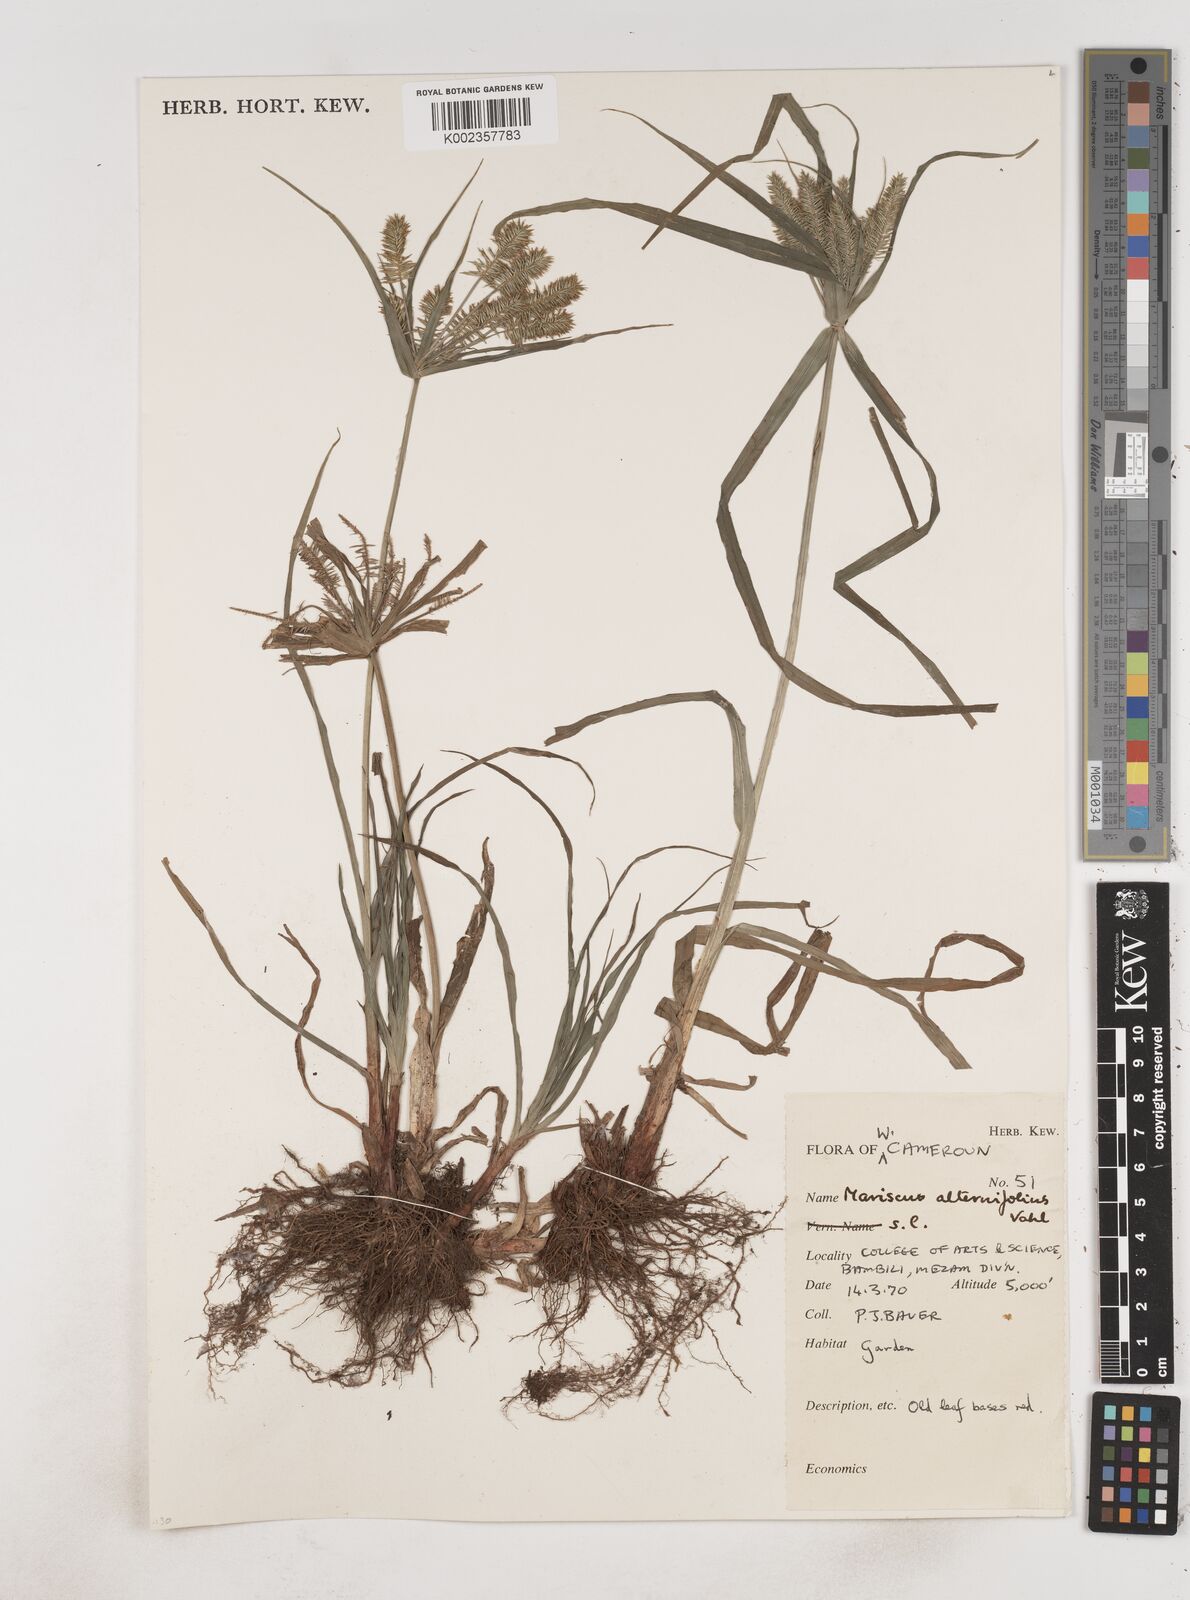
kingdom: Plantae
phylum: Tracheophyta
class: Liliopsida
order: Poales
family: Cyperaceae
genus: Cyperus
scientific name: Cyperus sublimis
